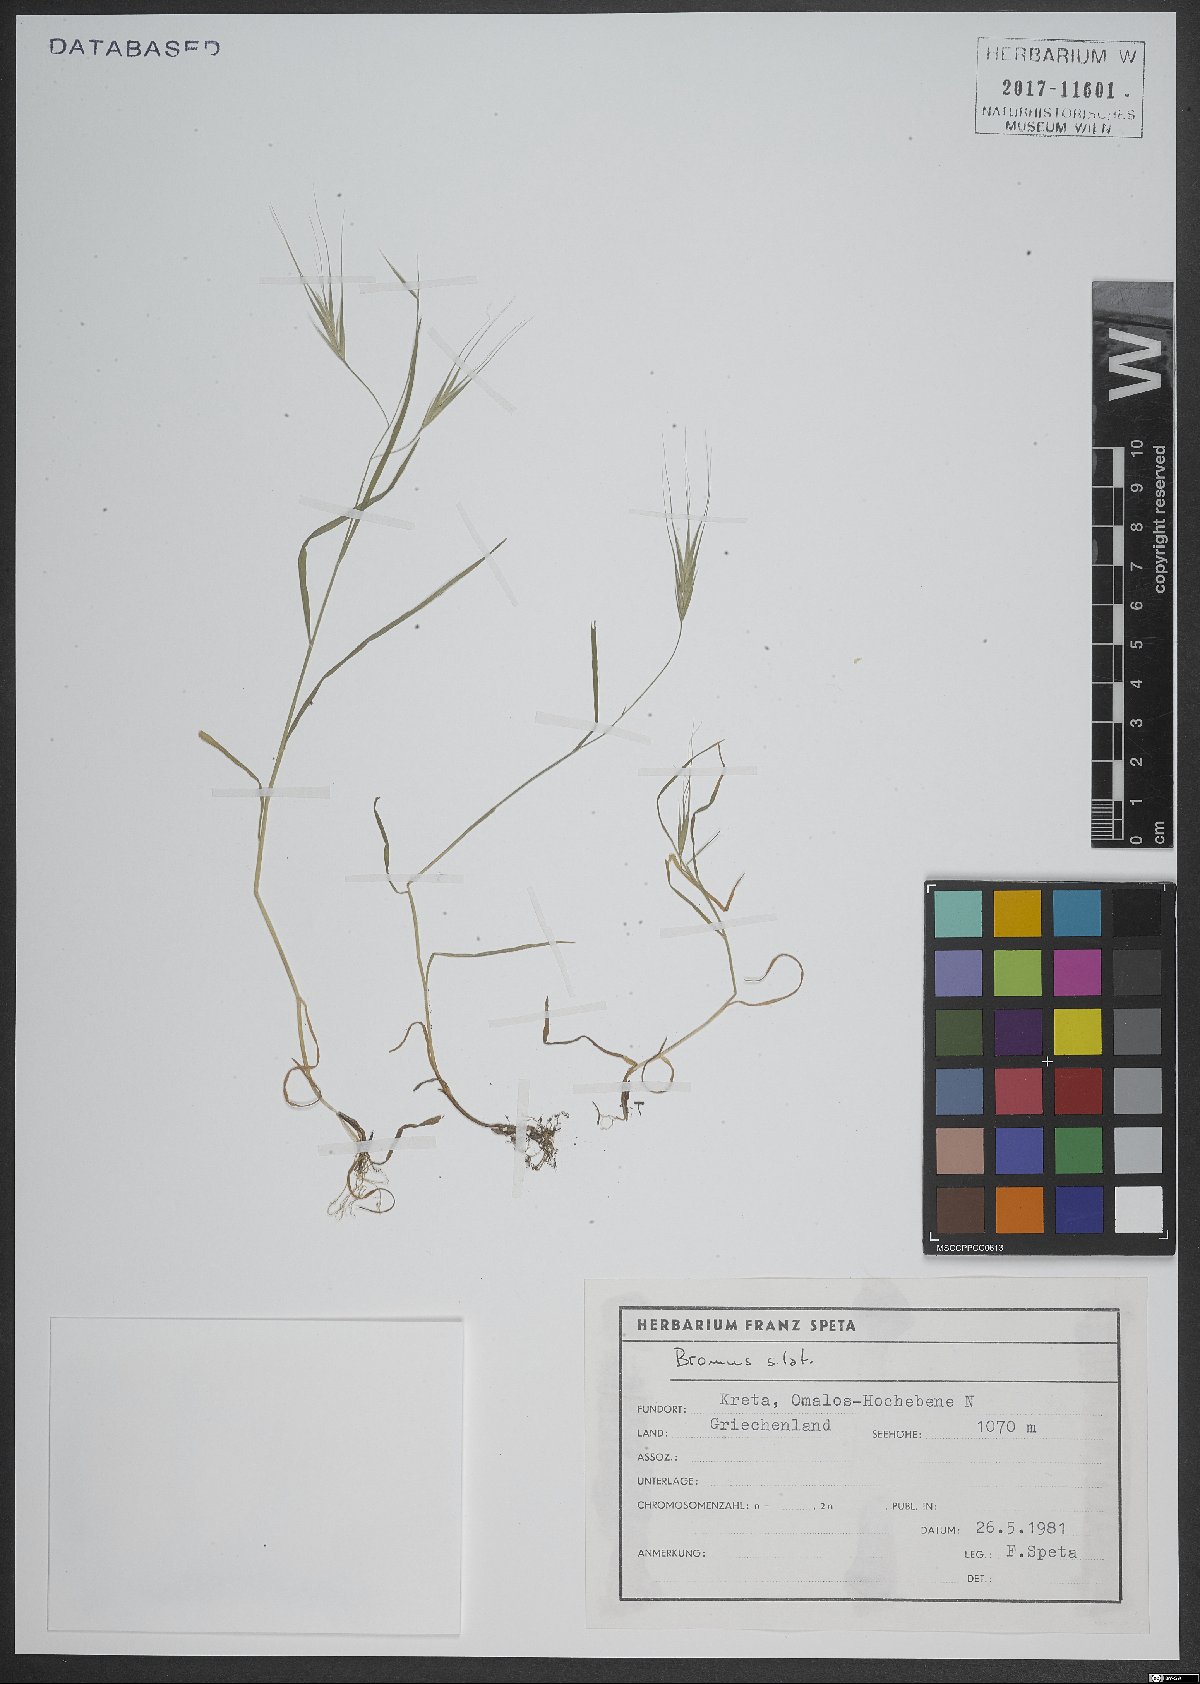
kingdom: Plantae
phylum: Tracheophyta
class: Liliopsida
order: Poales
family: Poaceae
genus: Bromus
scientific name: Bromus
